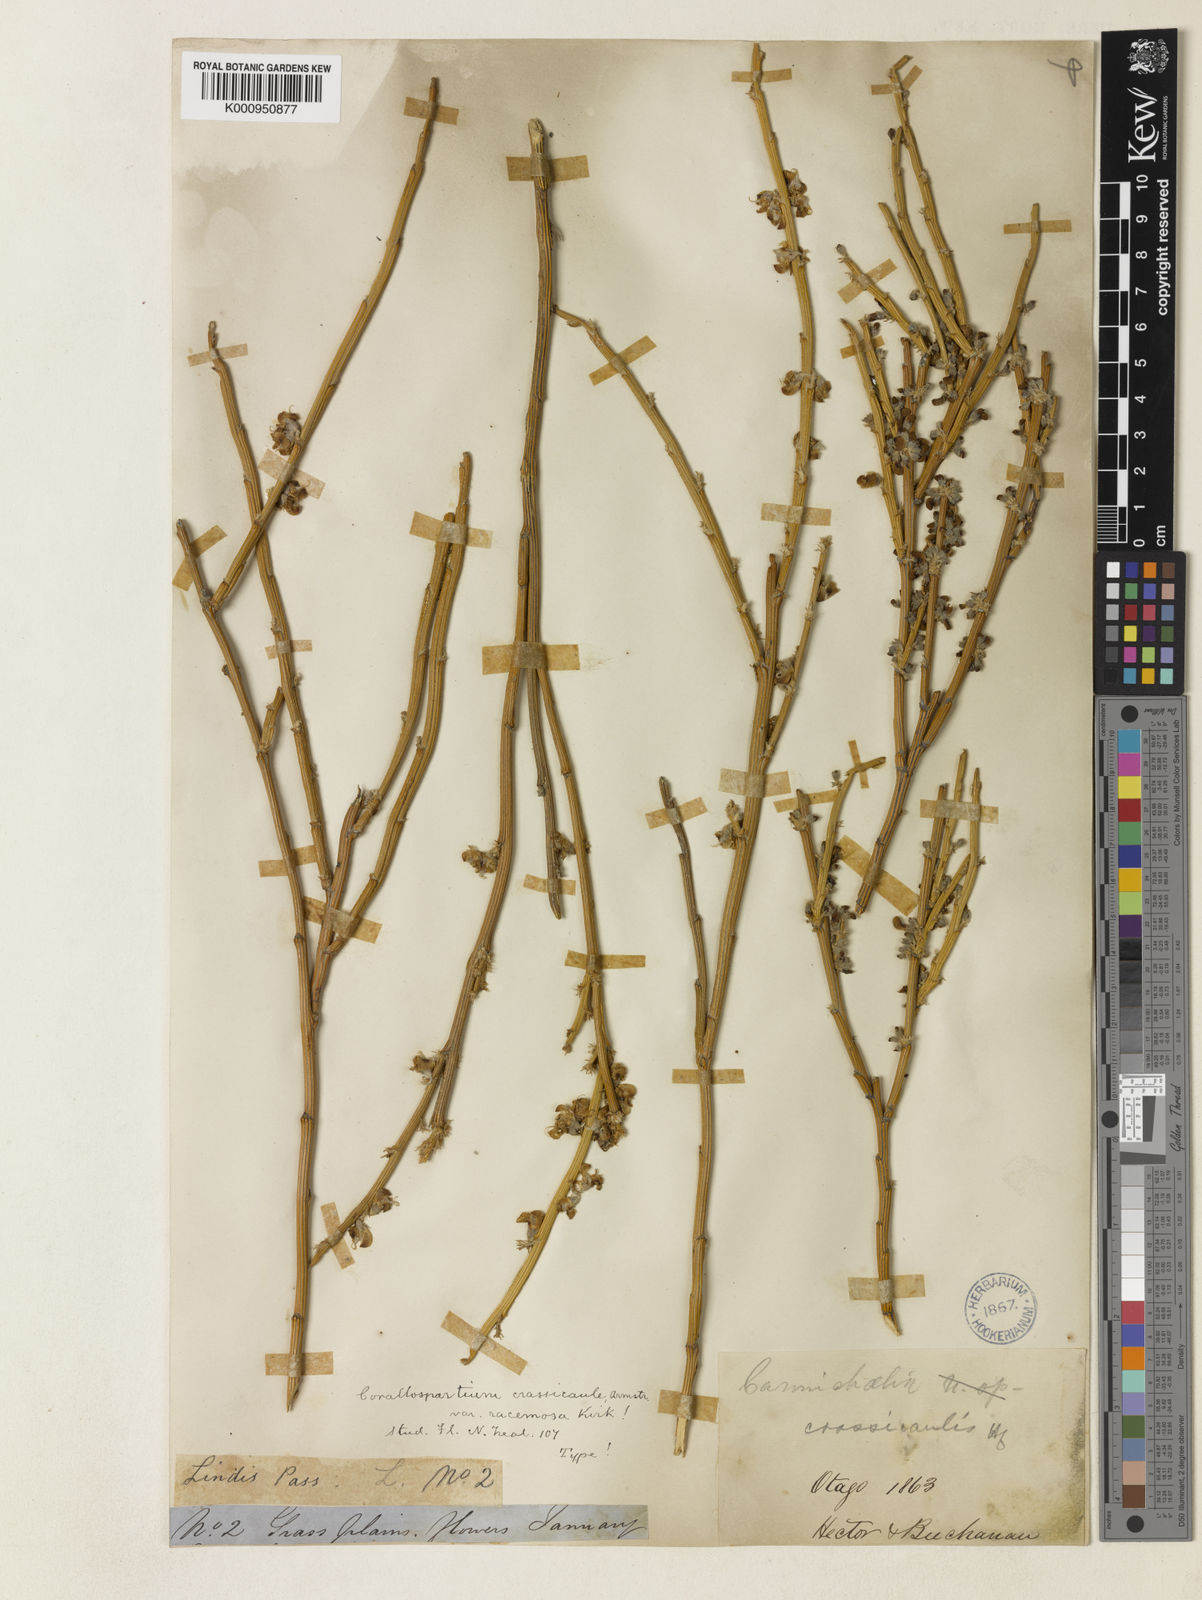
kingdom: Plantae
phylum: Tracheophyta
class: Magnoliopsida
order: Fabales
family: Fabaceae
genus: Carmichaelia
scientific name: Carmichaelia crassicaulis
